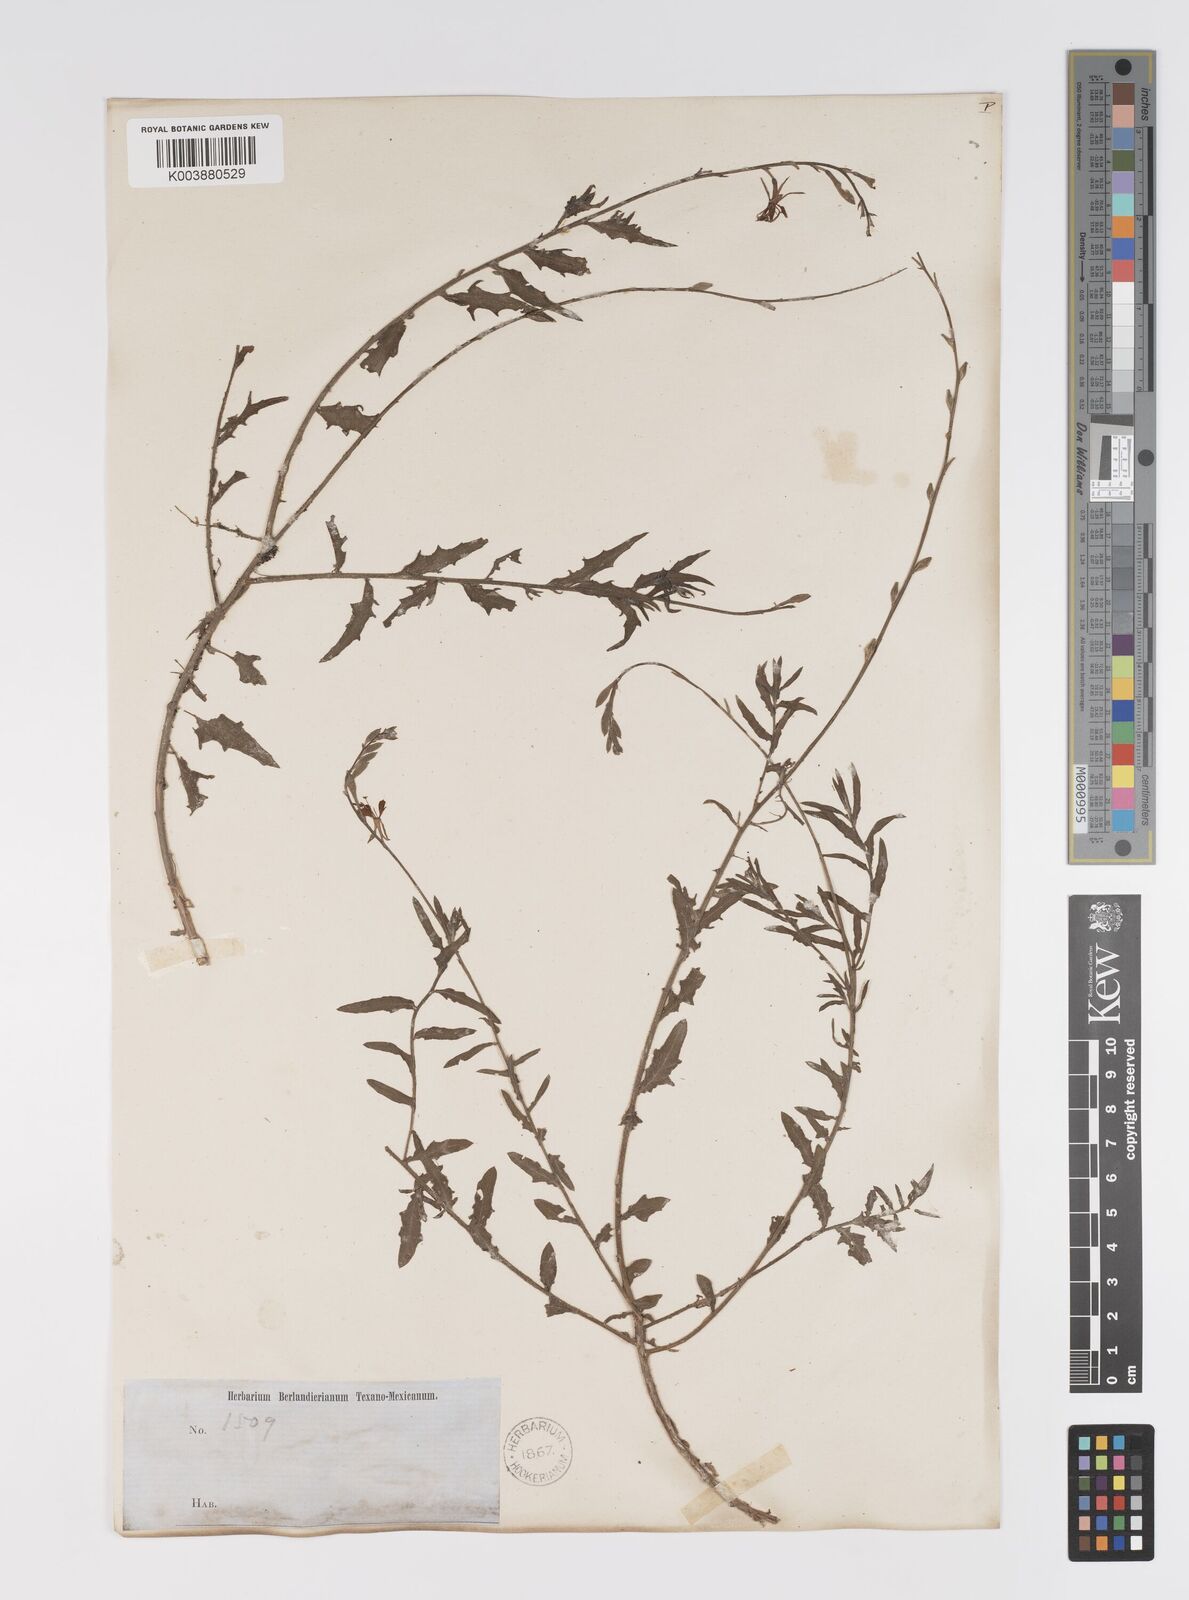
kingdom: Plantae
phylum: Tracheophyta
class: Magnoliopsida
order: Myrtales
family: Onagraceae
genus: Oenothera
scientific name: Oenothera hispida
